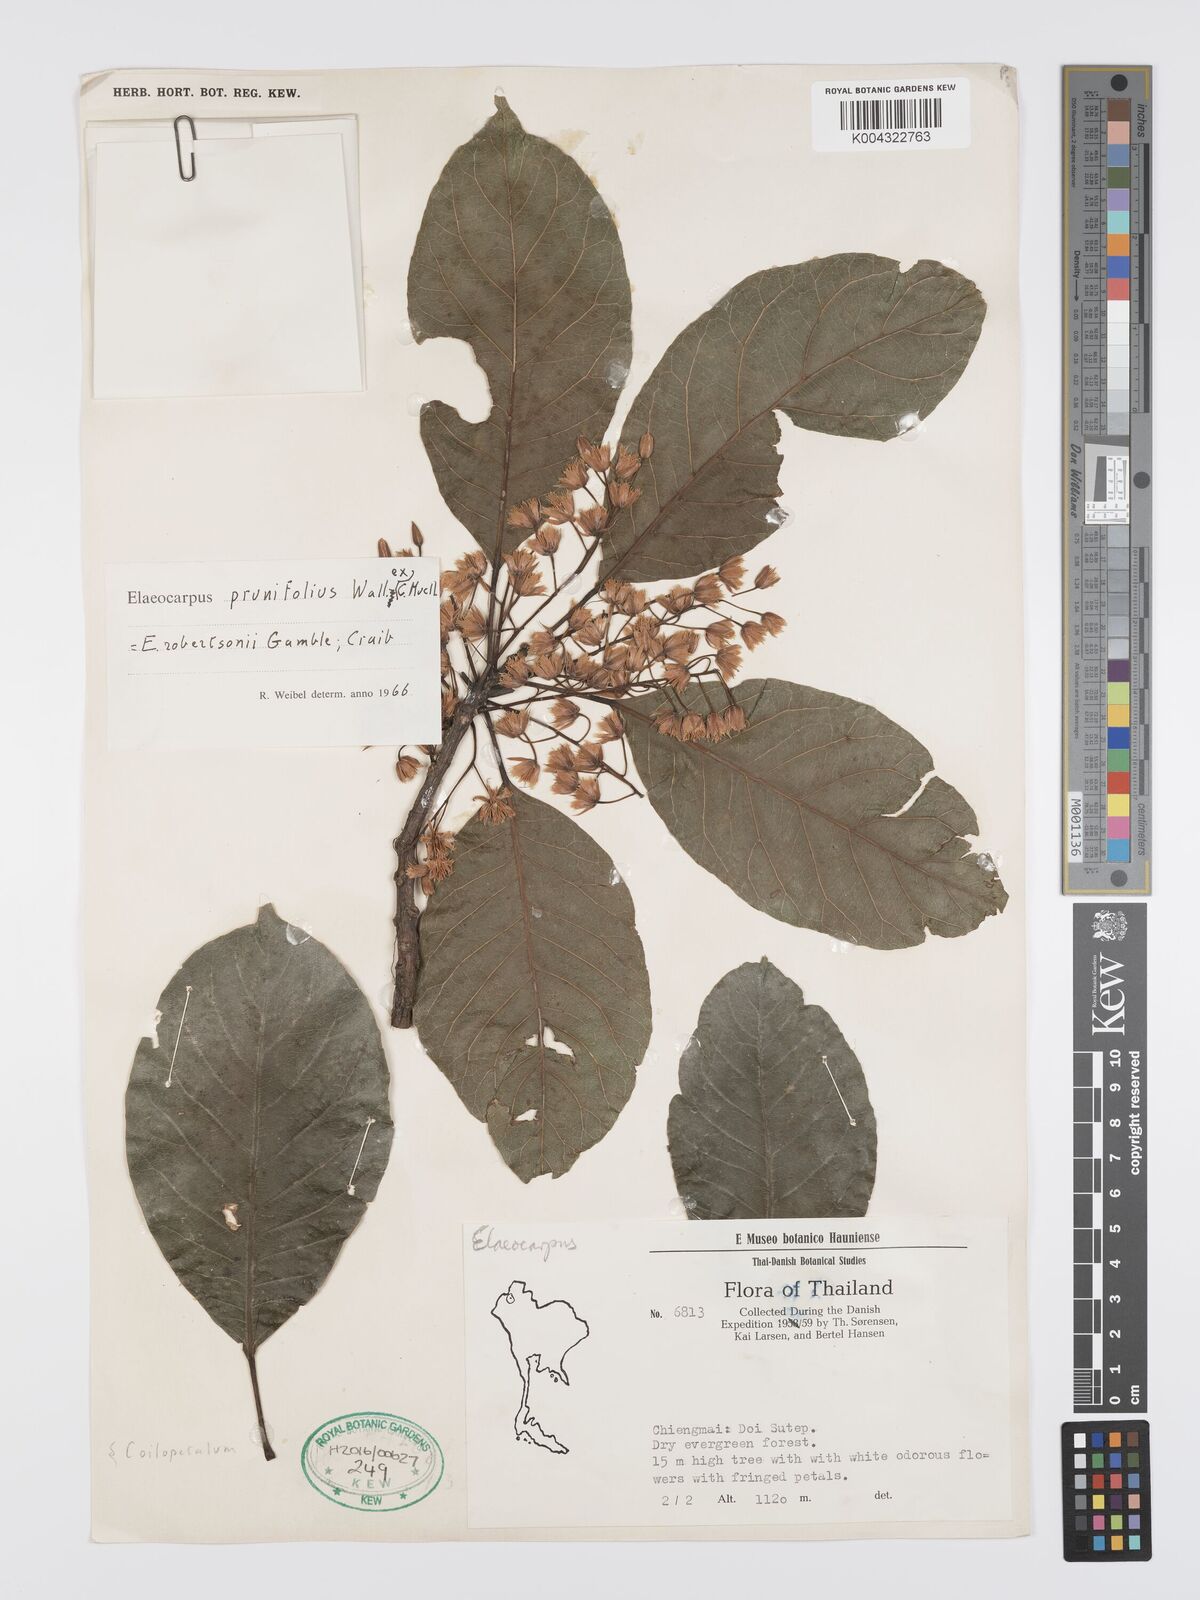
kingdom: Plantae
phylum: Tracheophyta
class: Magnoliopsida
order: Oxalidales
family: Elaeocarpaceae
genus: Elaeocarpus
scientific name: Elaeocarpus
